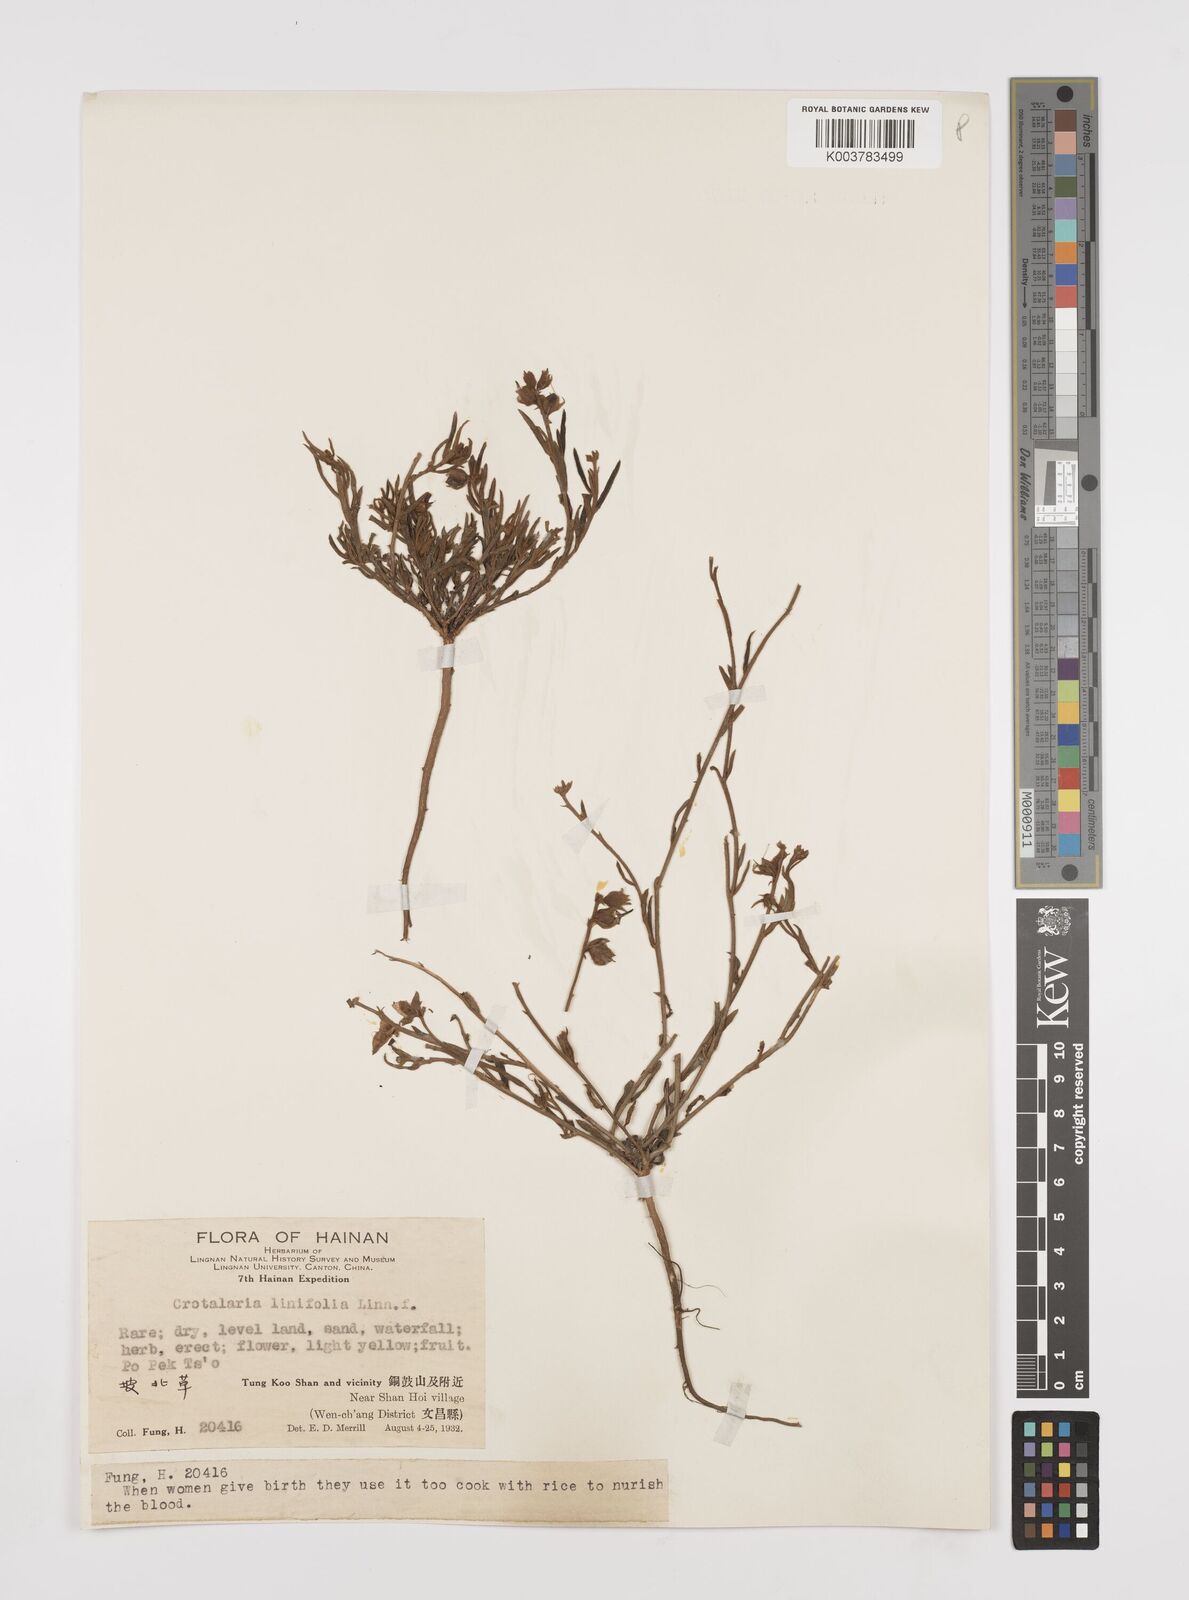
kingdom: Plantae
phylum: Tracheophyta
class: Magnoliopsida
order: Fabales
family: Fabaceae
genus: Crotalaria
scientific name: Crotalaria linifolia
